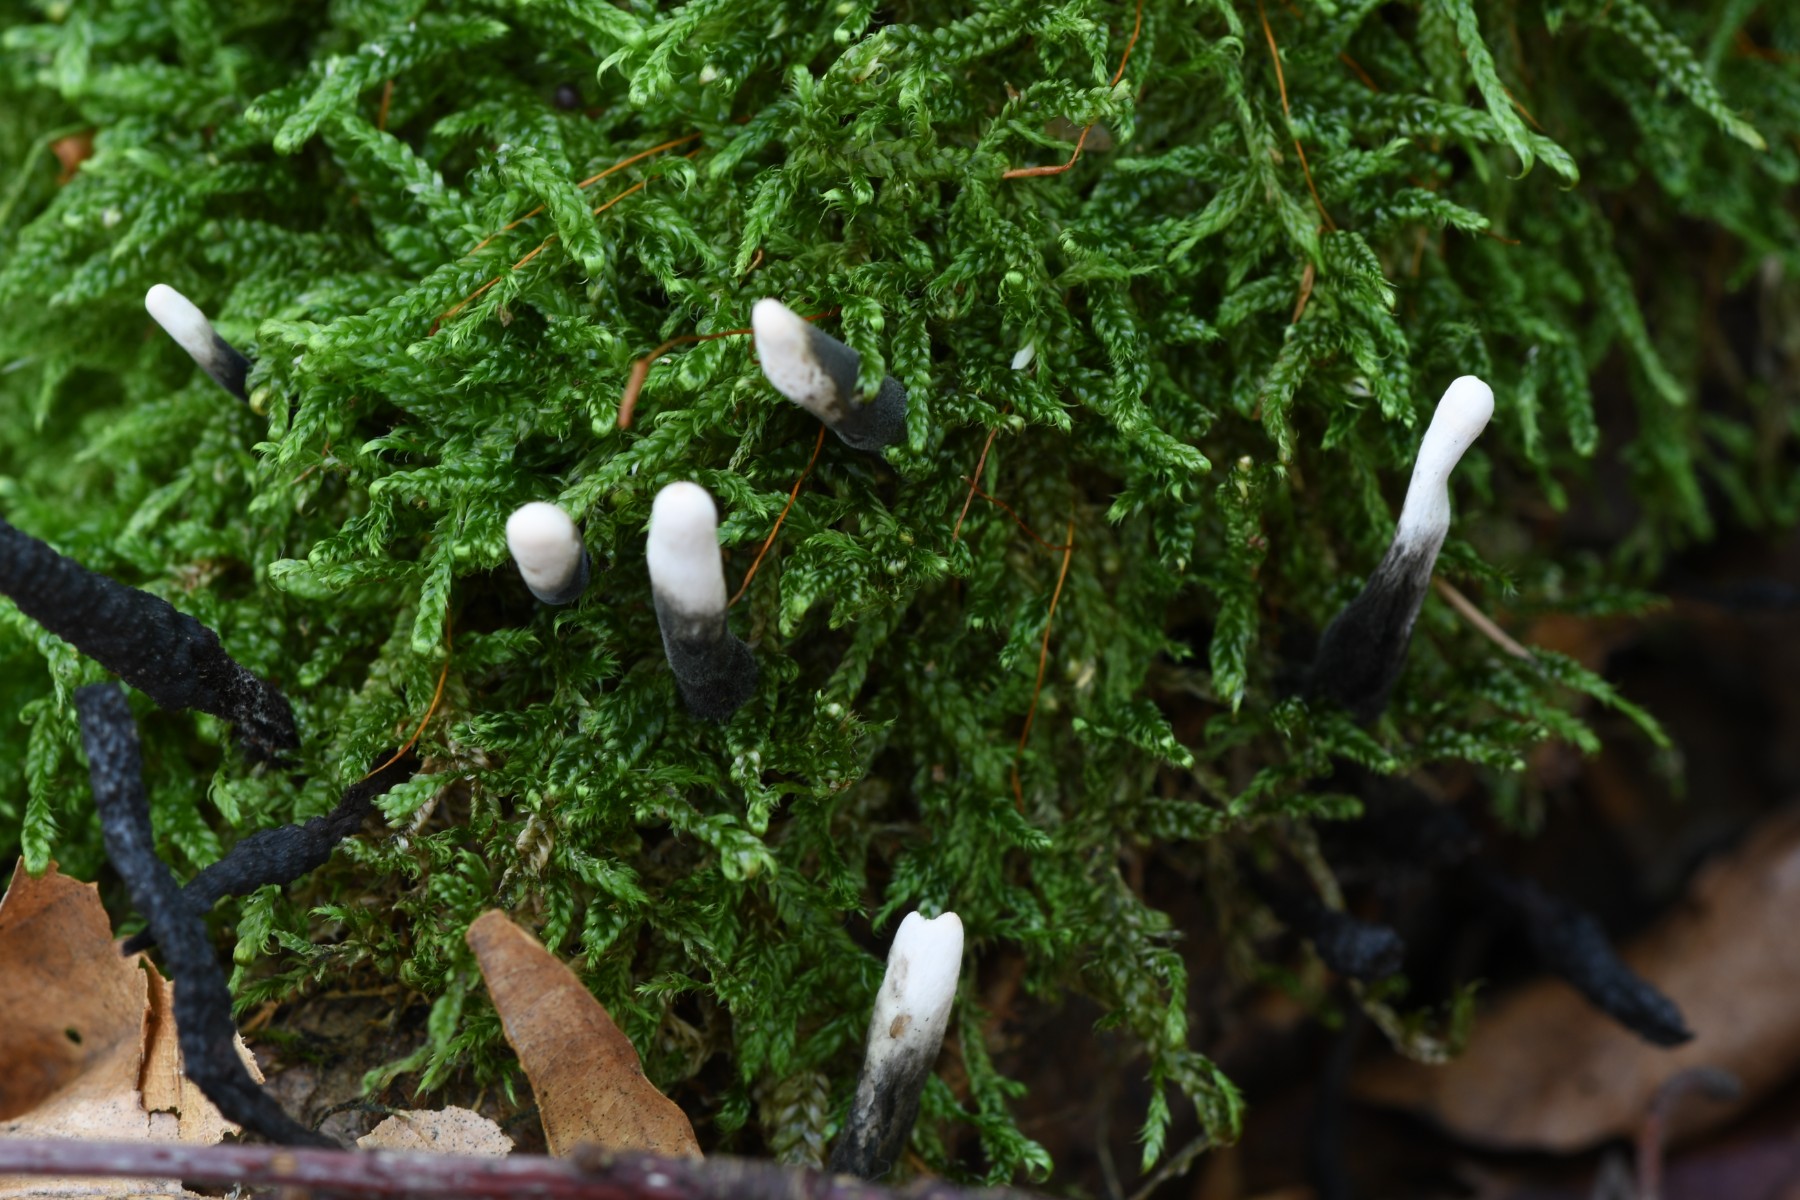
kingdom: Fungi
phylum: Ascomycota
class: Sordariomycetes
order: Xylariales
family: Xylariaceae
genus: Xylaria
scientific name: Xylaria hypoxylon
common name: grenet stødsvamp
